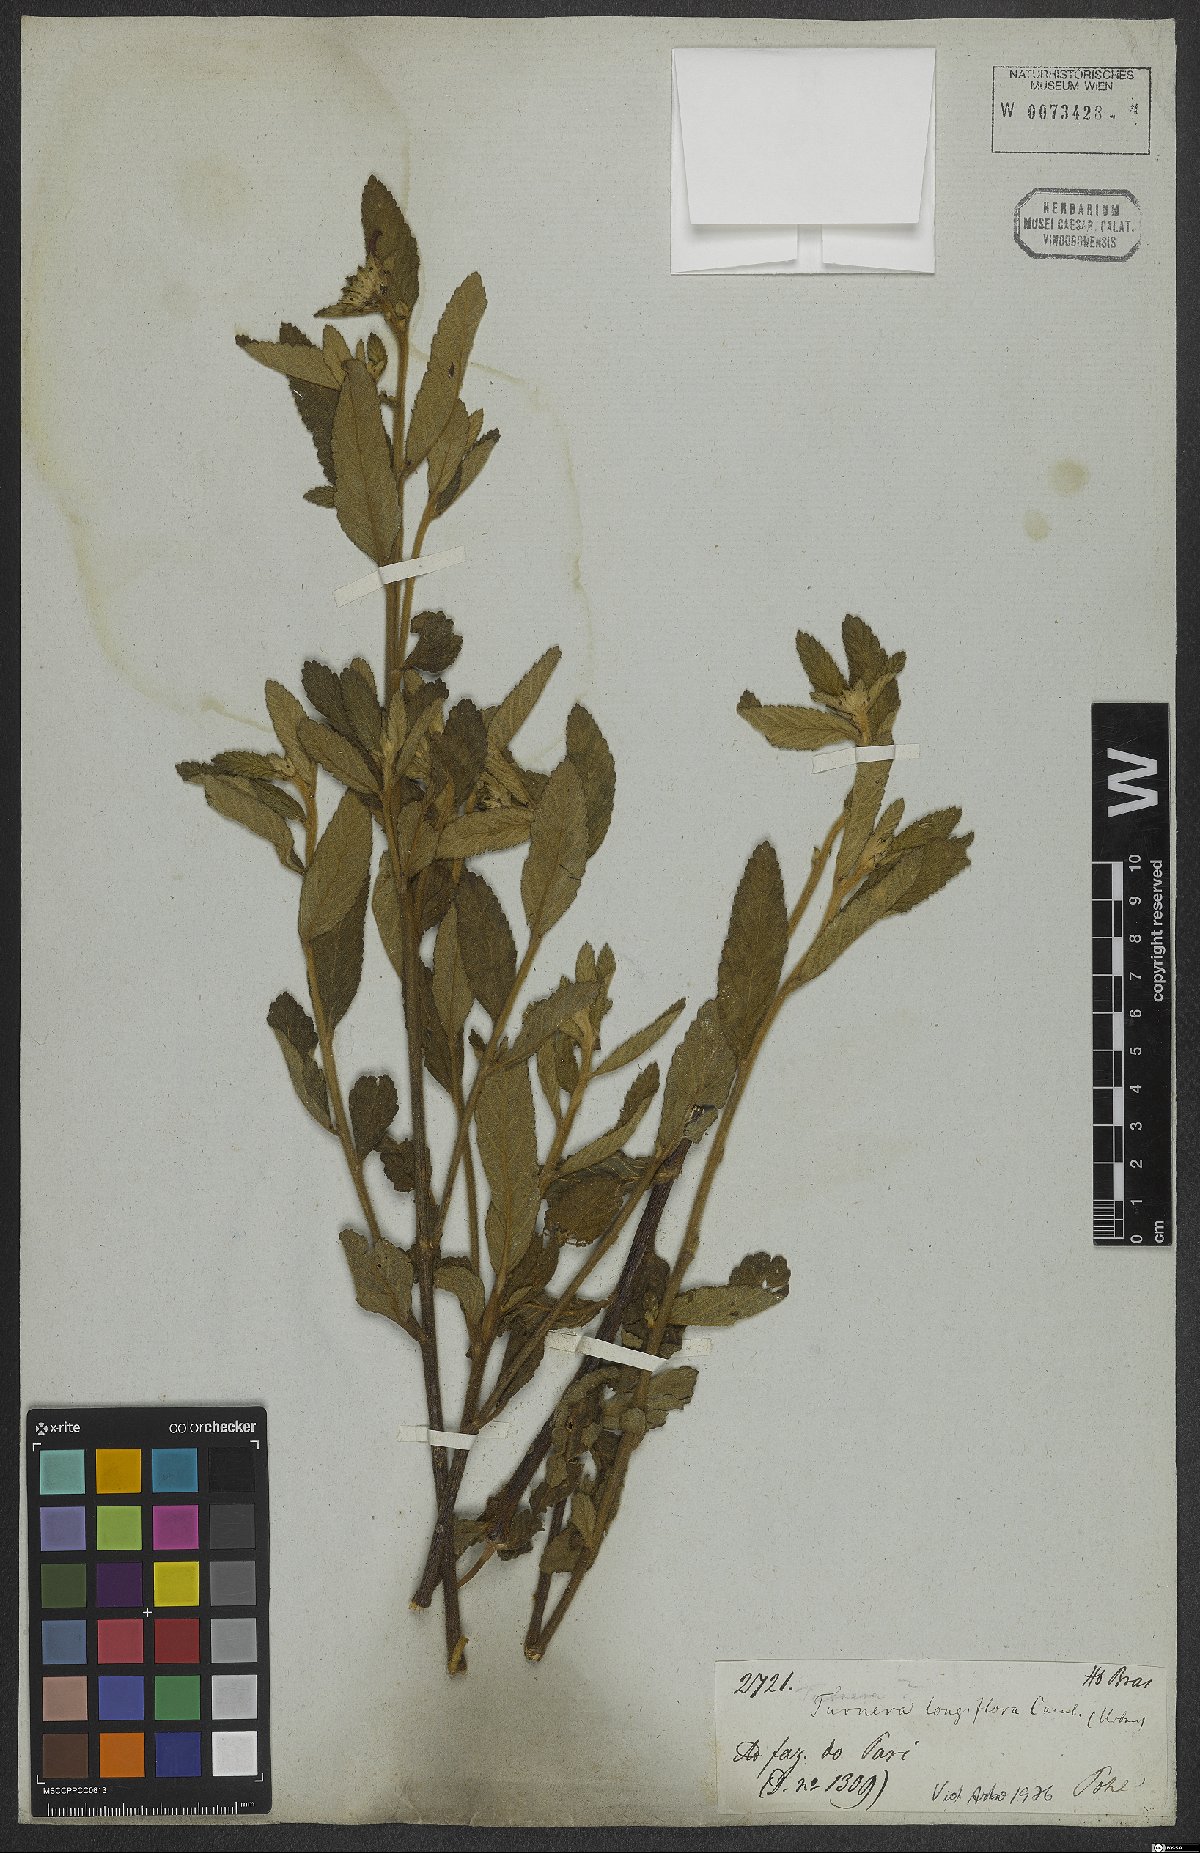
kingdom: Plantae
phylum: Tracheophyta
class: Magnoliopsida
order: Malpighiales
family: Turneraceae
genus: Turnera
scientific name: Turnera longiflora
